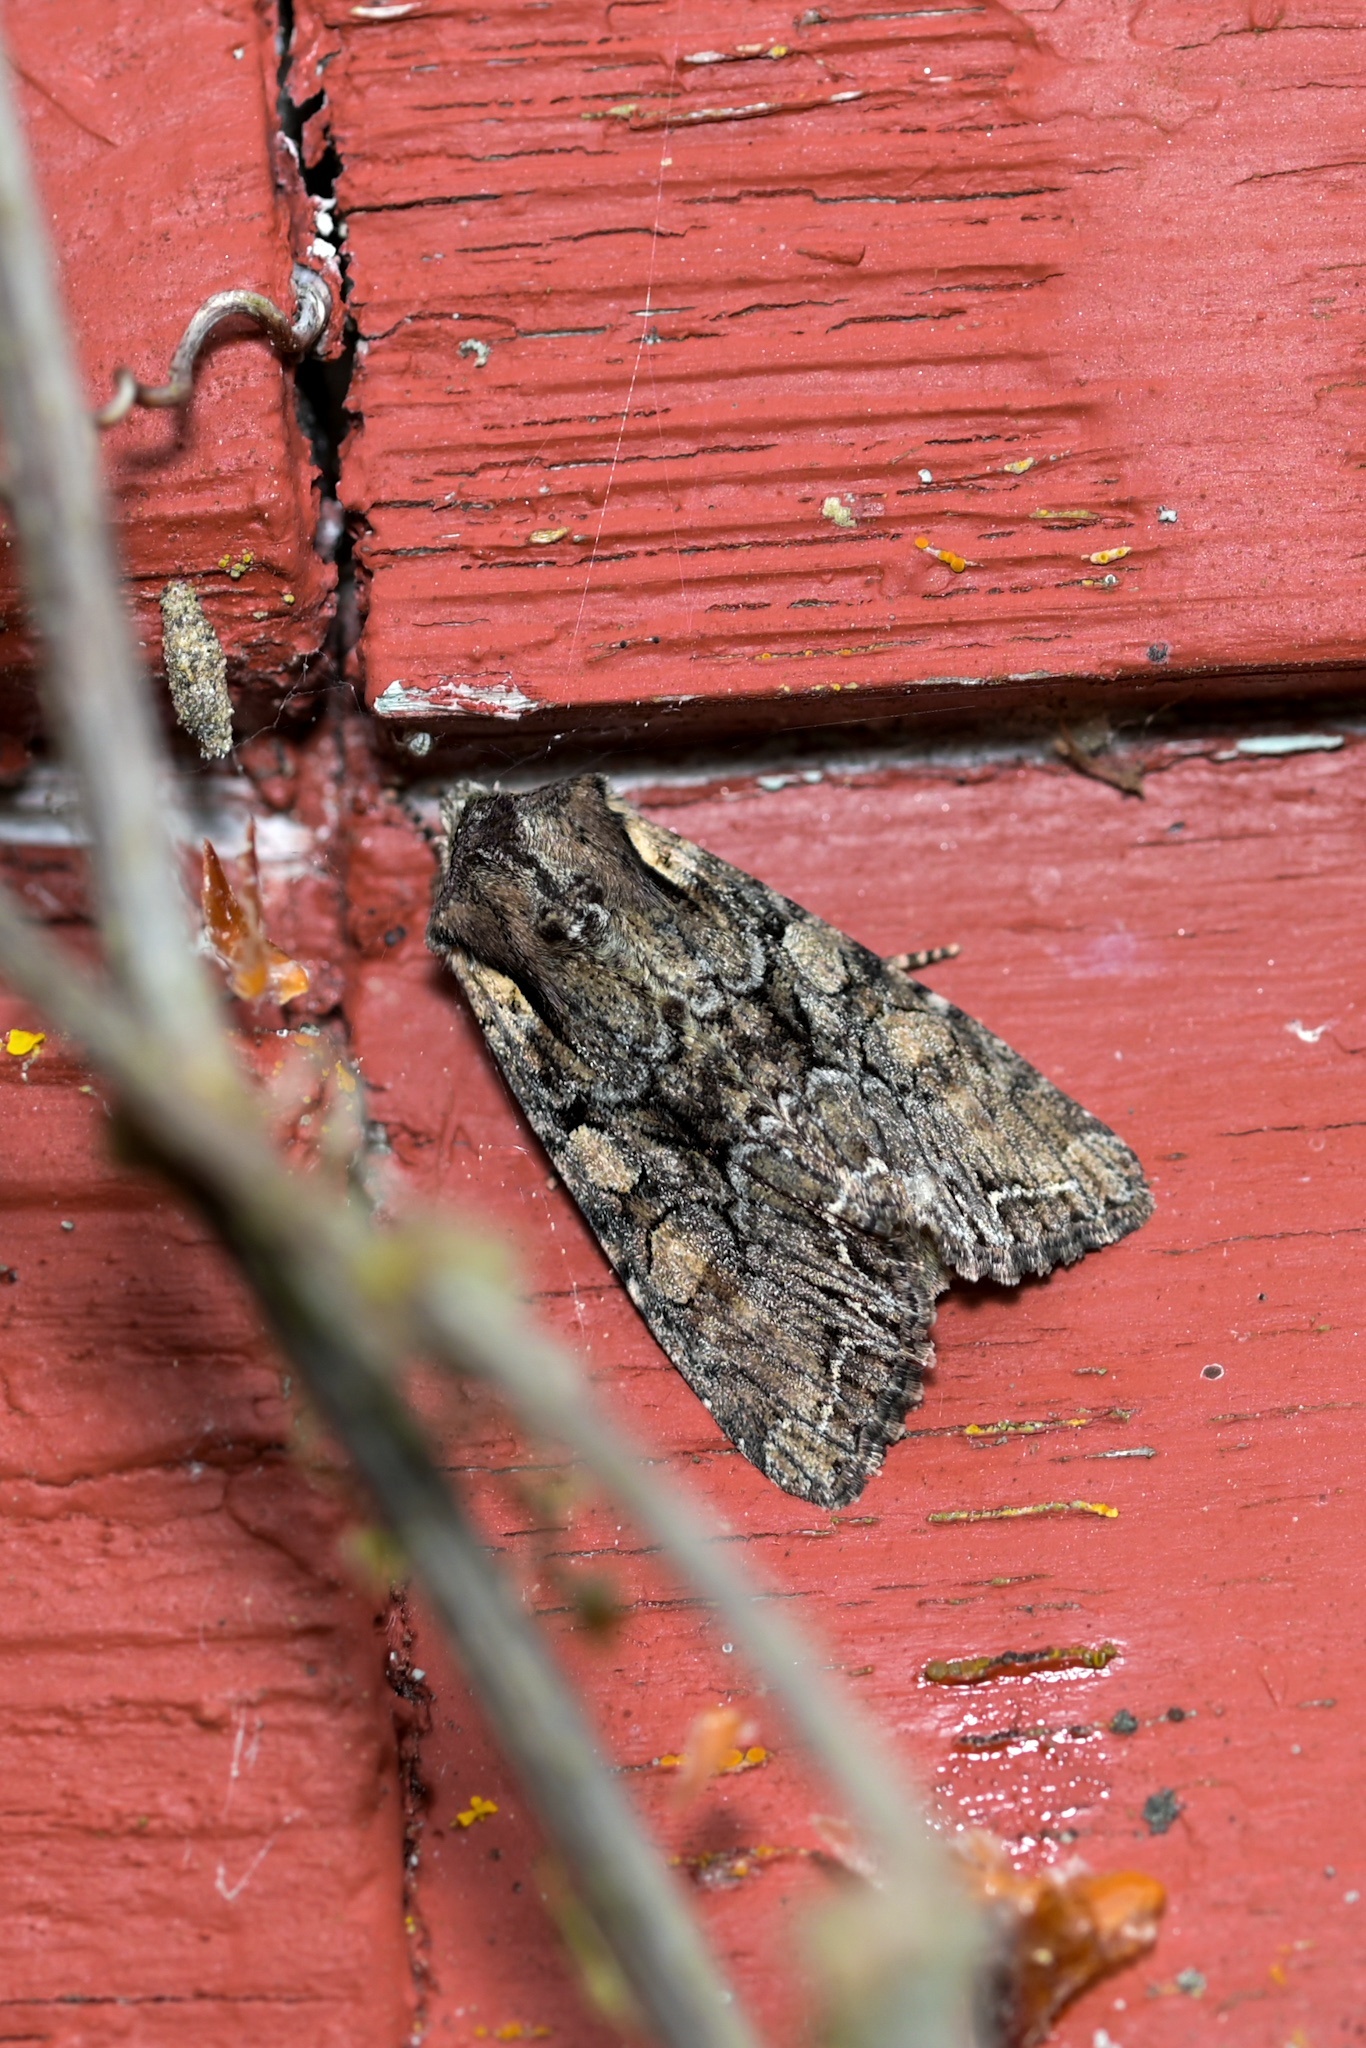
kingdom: Animalia
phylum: Arthropoda
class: Insecta
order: Lepidoptera
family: Noctuidae
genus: Lacanobia
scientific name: Lacanobia thalassina
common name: Pale-shouldered brocade
